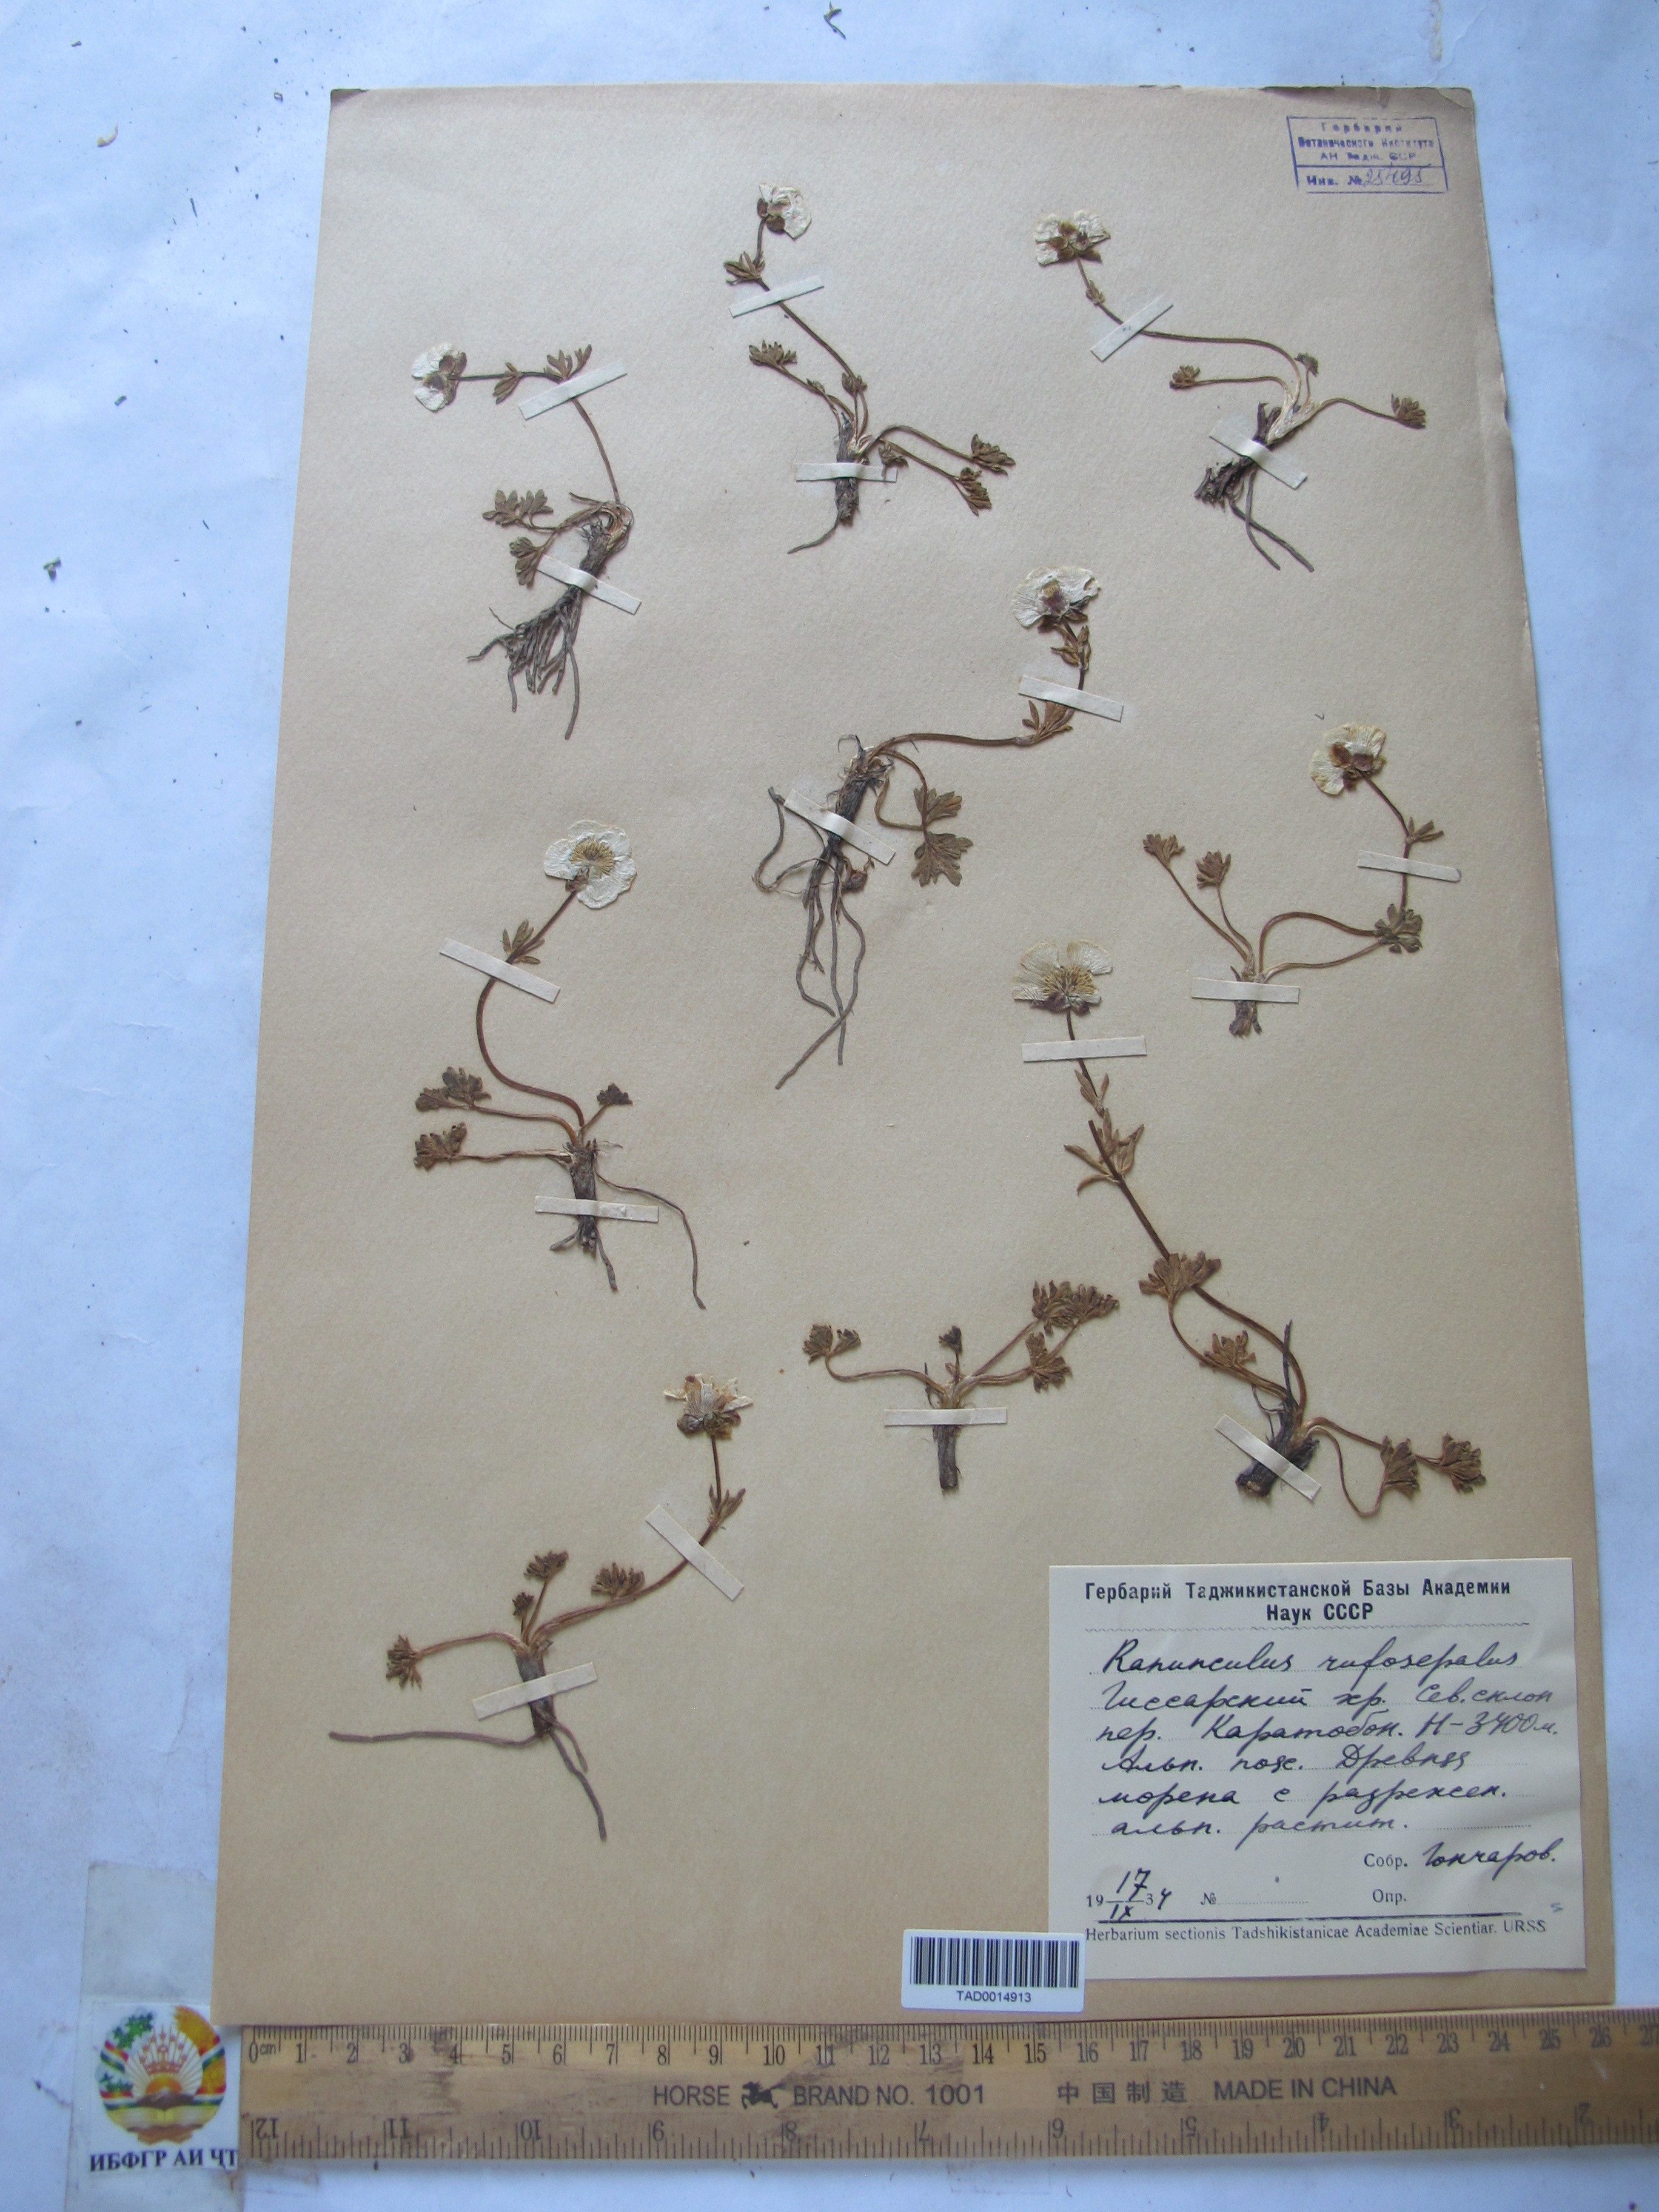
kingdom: Plantae
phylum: Tracheophyta
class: Magnoliopsida
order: Ranunculales
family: Ranunculaceae
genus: Ranunculus
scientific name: Ranunculus rufosepalus
